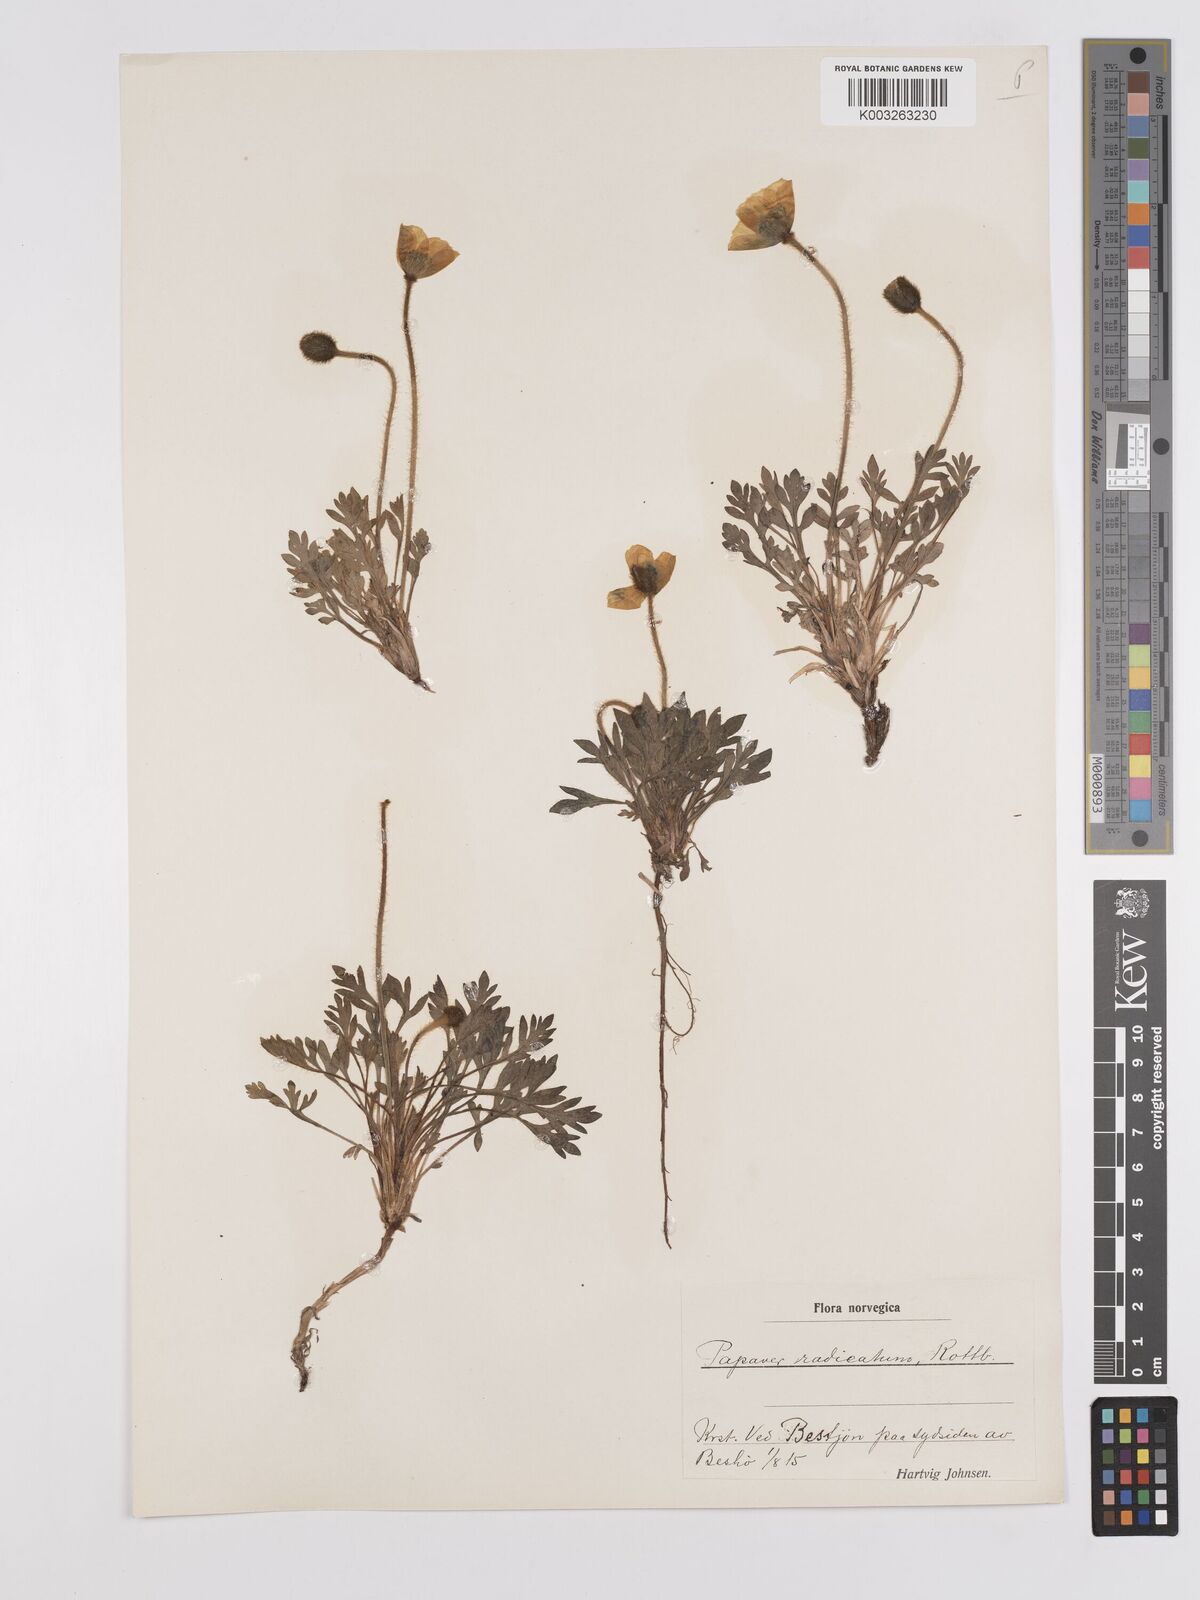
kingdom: Plantae
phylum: Tracheophyta
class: Magnoliopsida
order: Ranunculales
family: Papaveraceae
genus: Papaver
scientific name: Papaver radicatum
